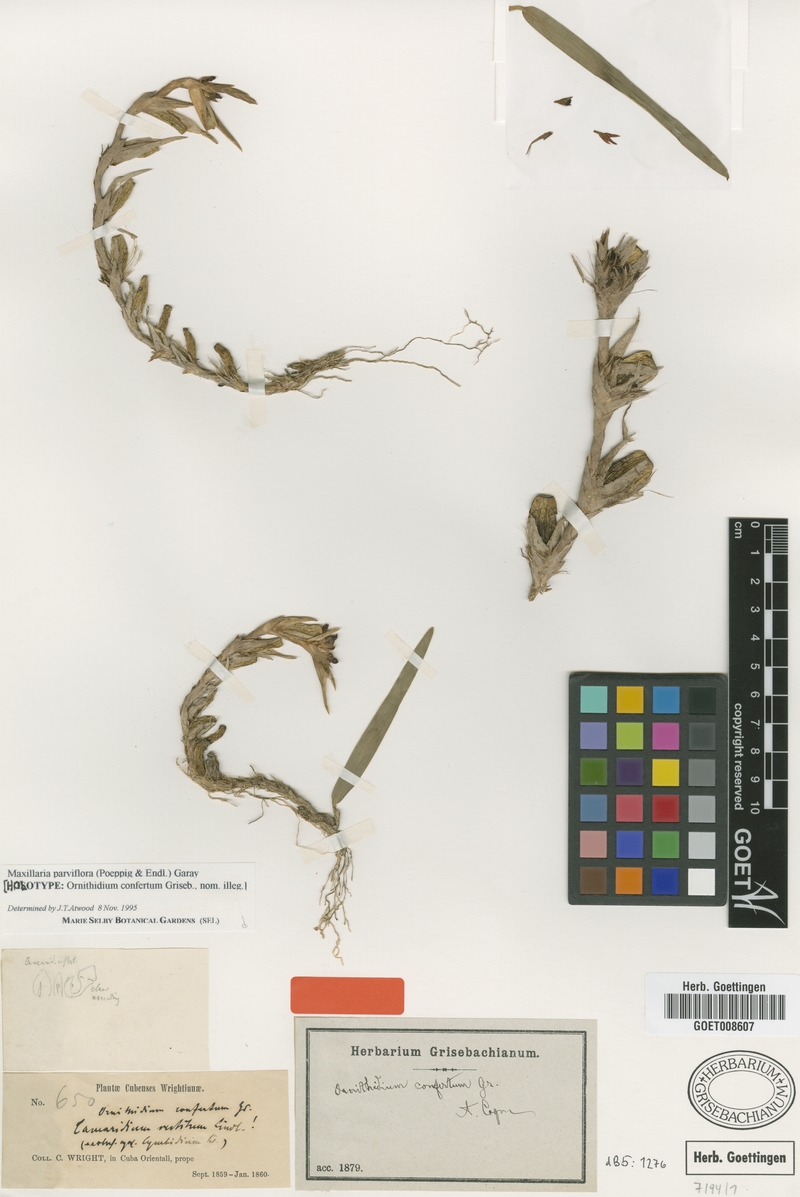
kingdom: Plantae
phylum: Tracheophyta
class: Liliopsida
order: Asparagales
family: Orchidaceae
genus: Maxillaria
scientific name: Maxillaria parviflora
